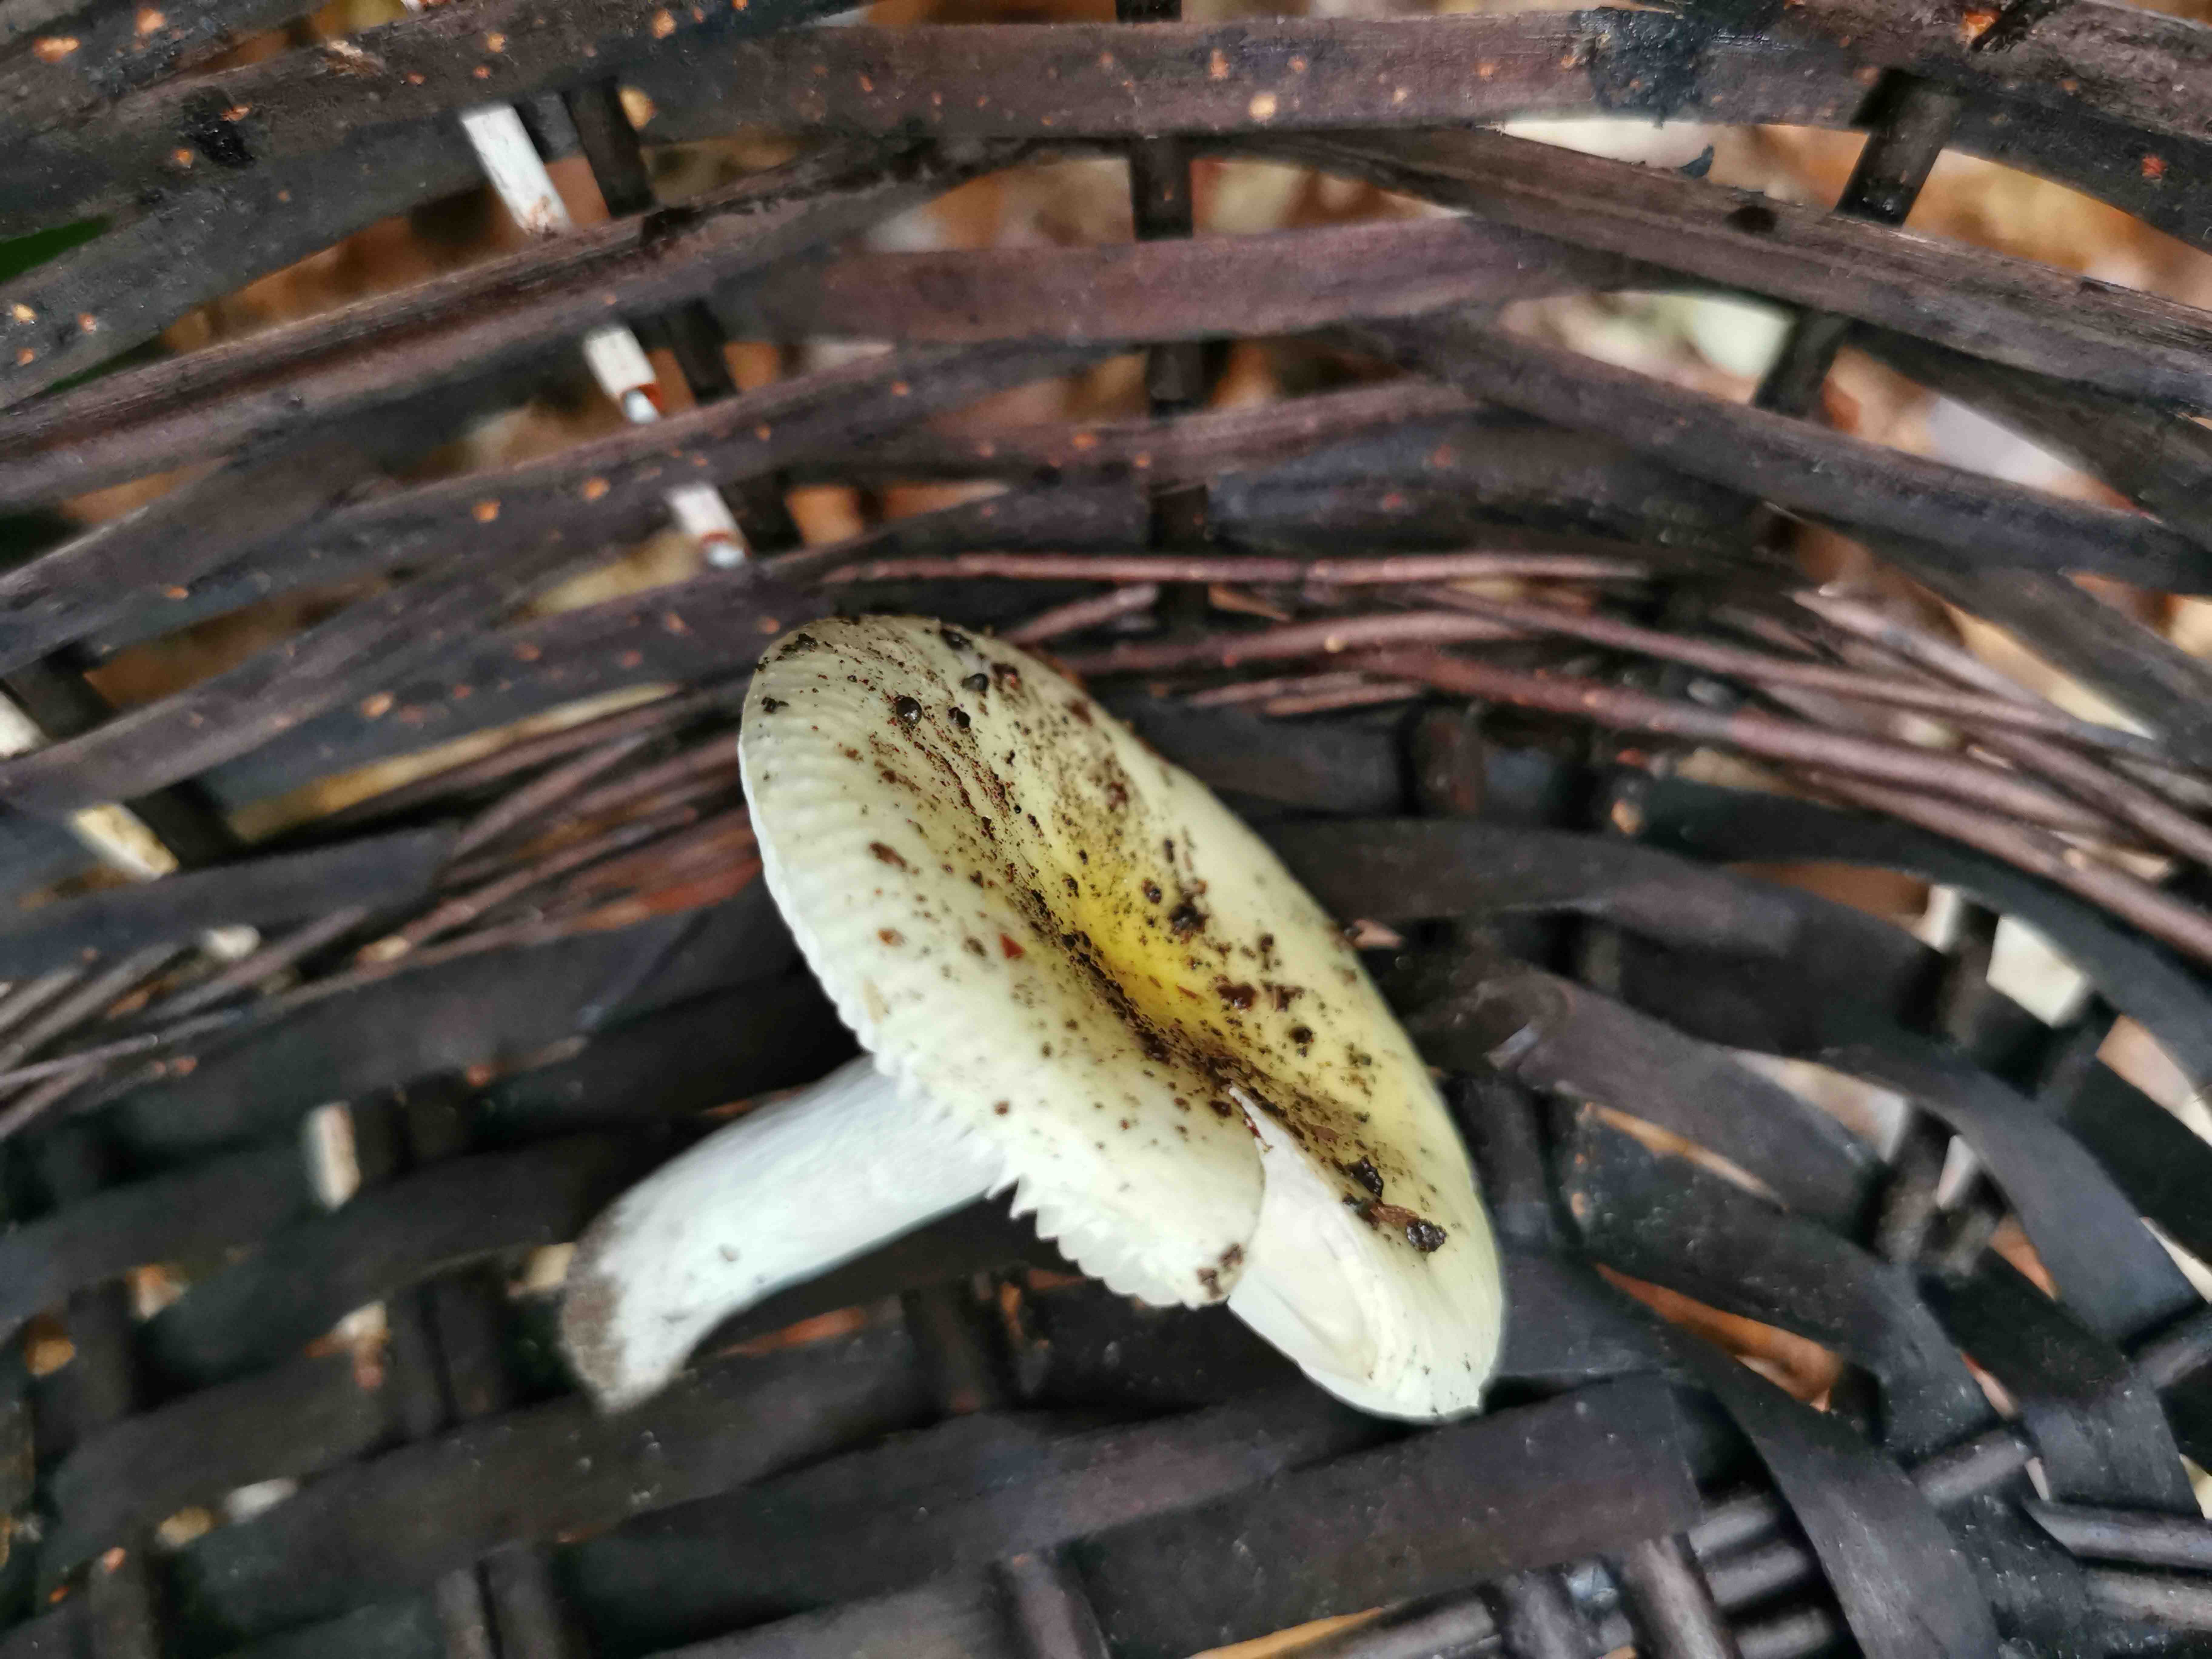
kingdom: Fungi
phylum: Basidiomycota
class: Agaricomycetes
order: Russulales
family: Russulaceae
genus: Russula
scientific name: Russula fellea
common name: galde-skørhat
